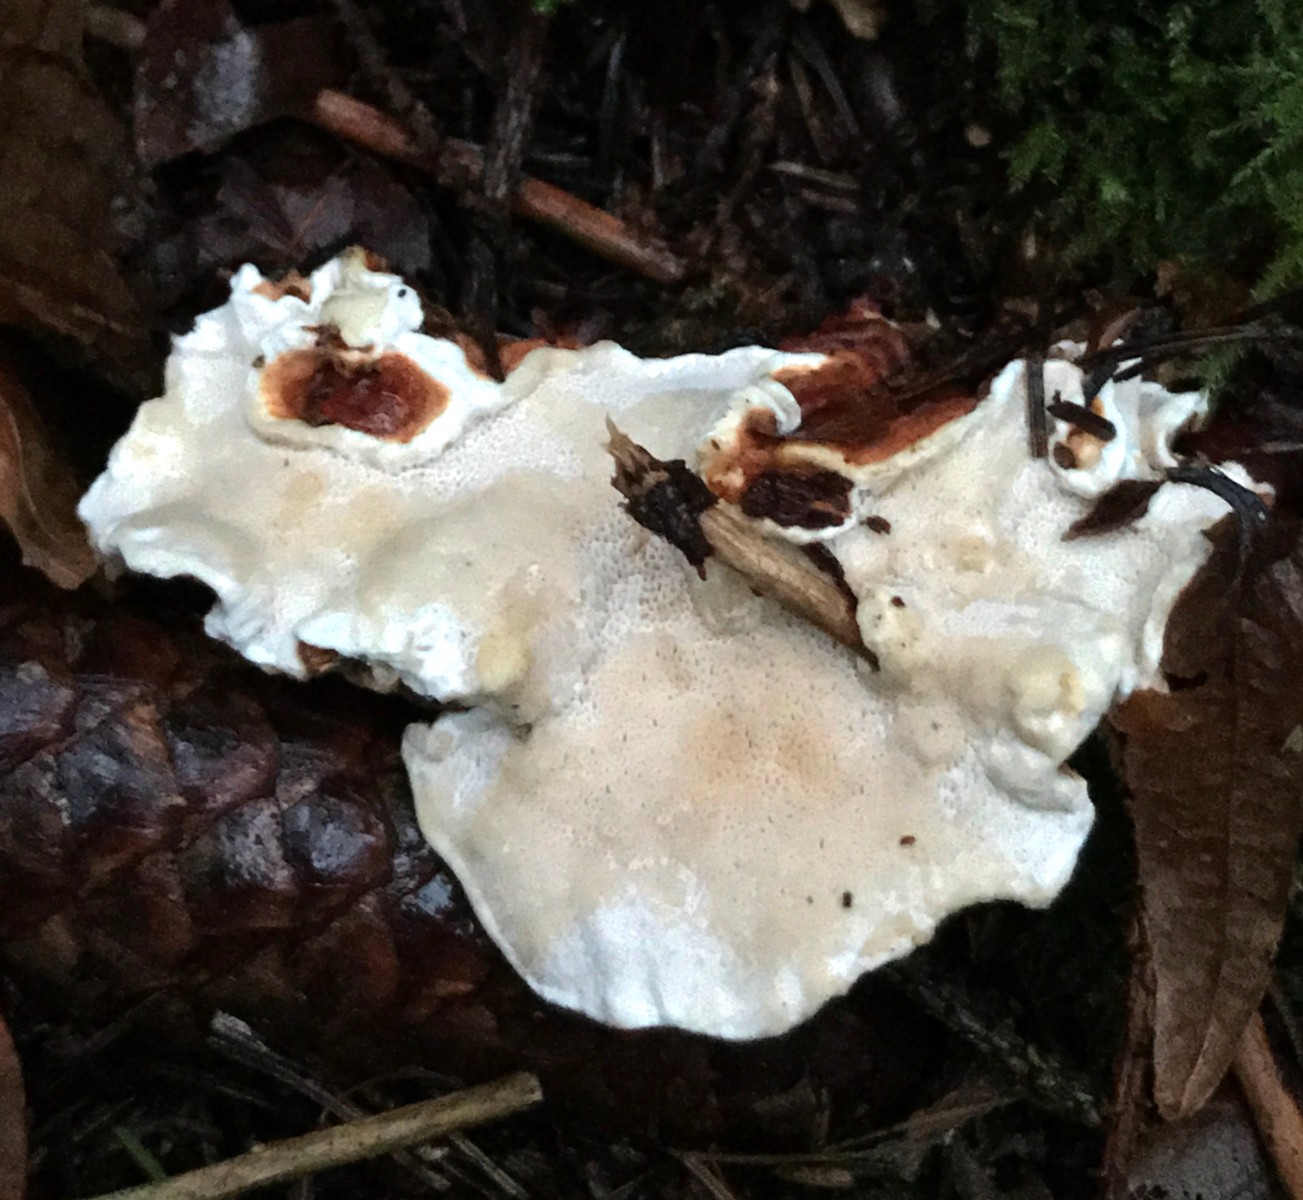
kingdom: Fungi
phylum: Basidiomycota
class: Agaricomycetes
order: Russulales
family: Bondarzewiaceae
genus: Heterobasidion
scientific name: Heterobasidion annosum
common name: almindelig rodfordærver
